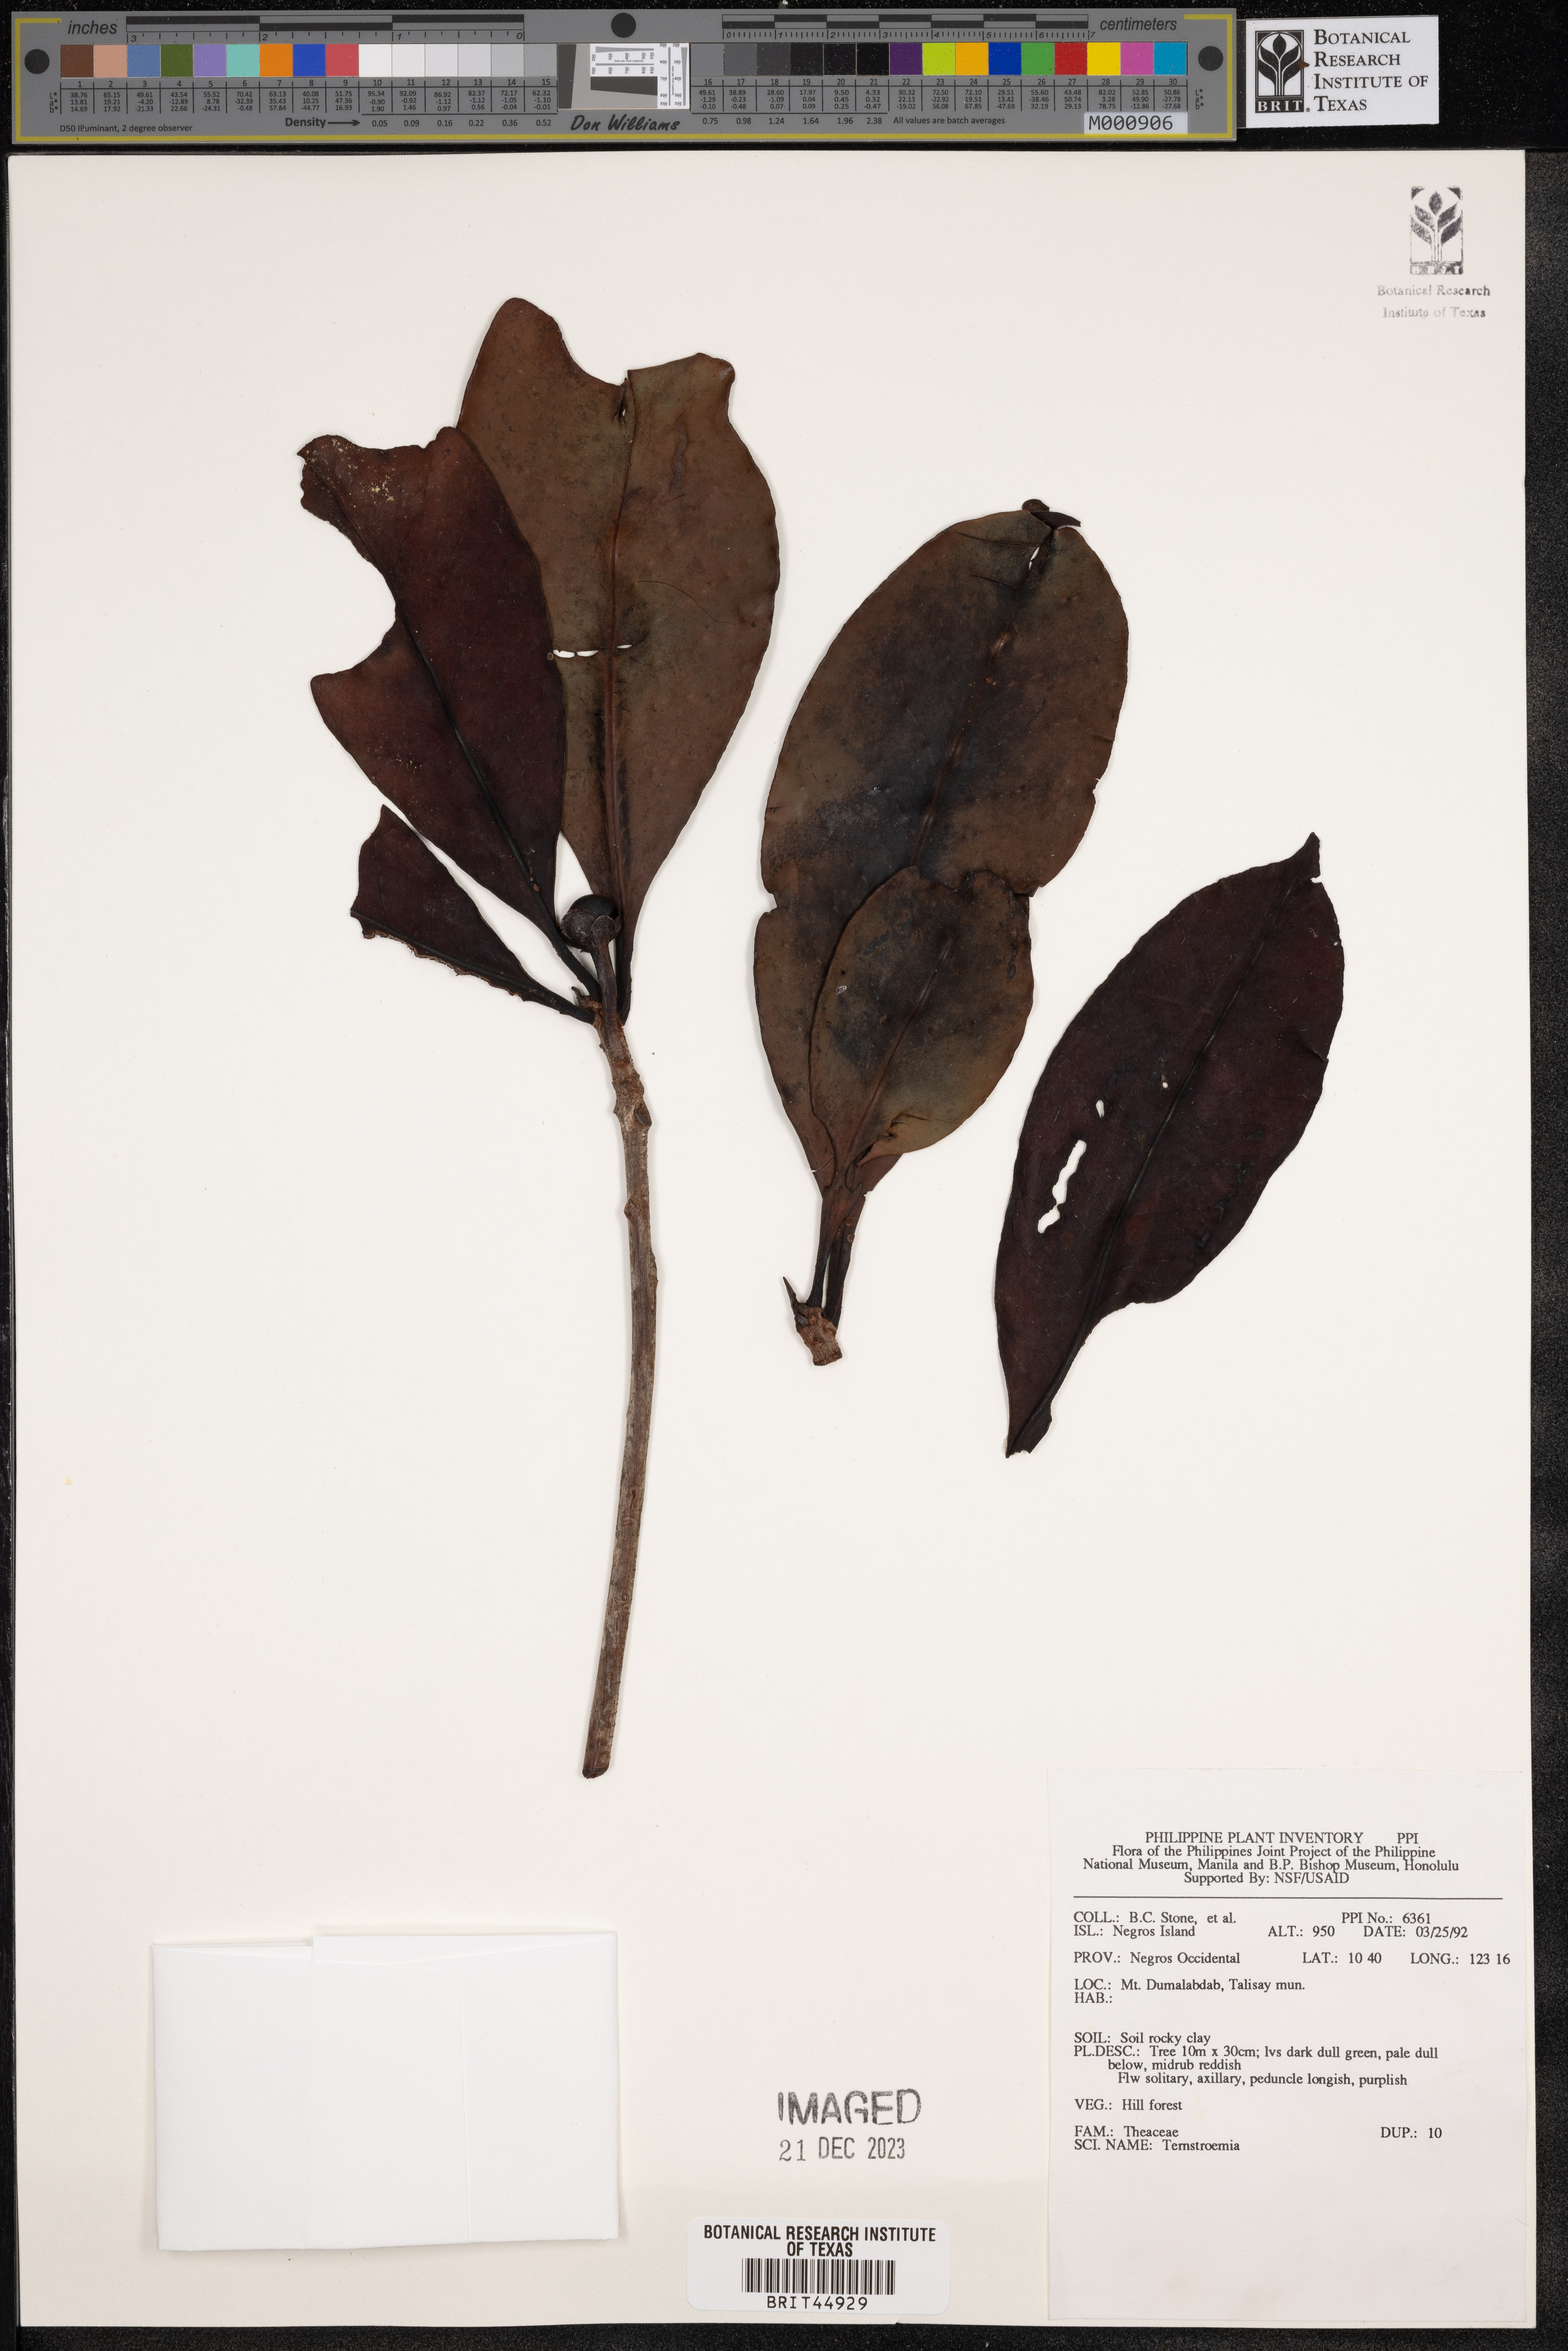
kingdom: Plantae
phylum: Tracheophyta
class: Magnoliopsida
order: Ericales
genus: Ternstroemia
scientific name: Ternstroemia
